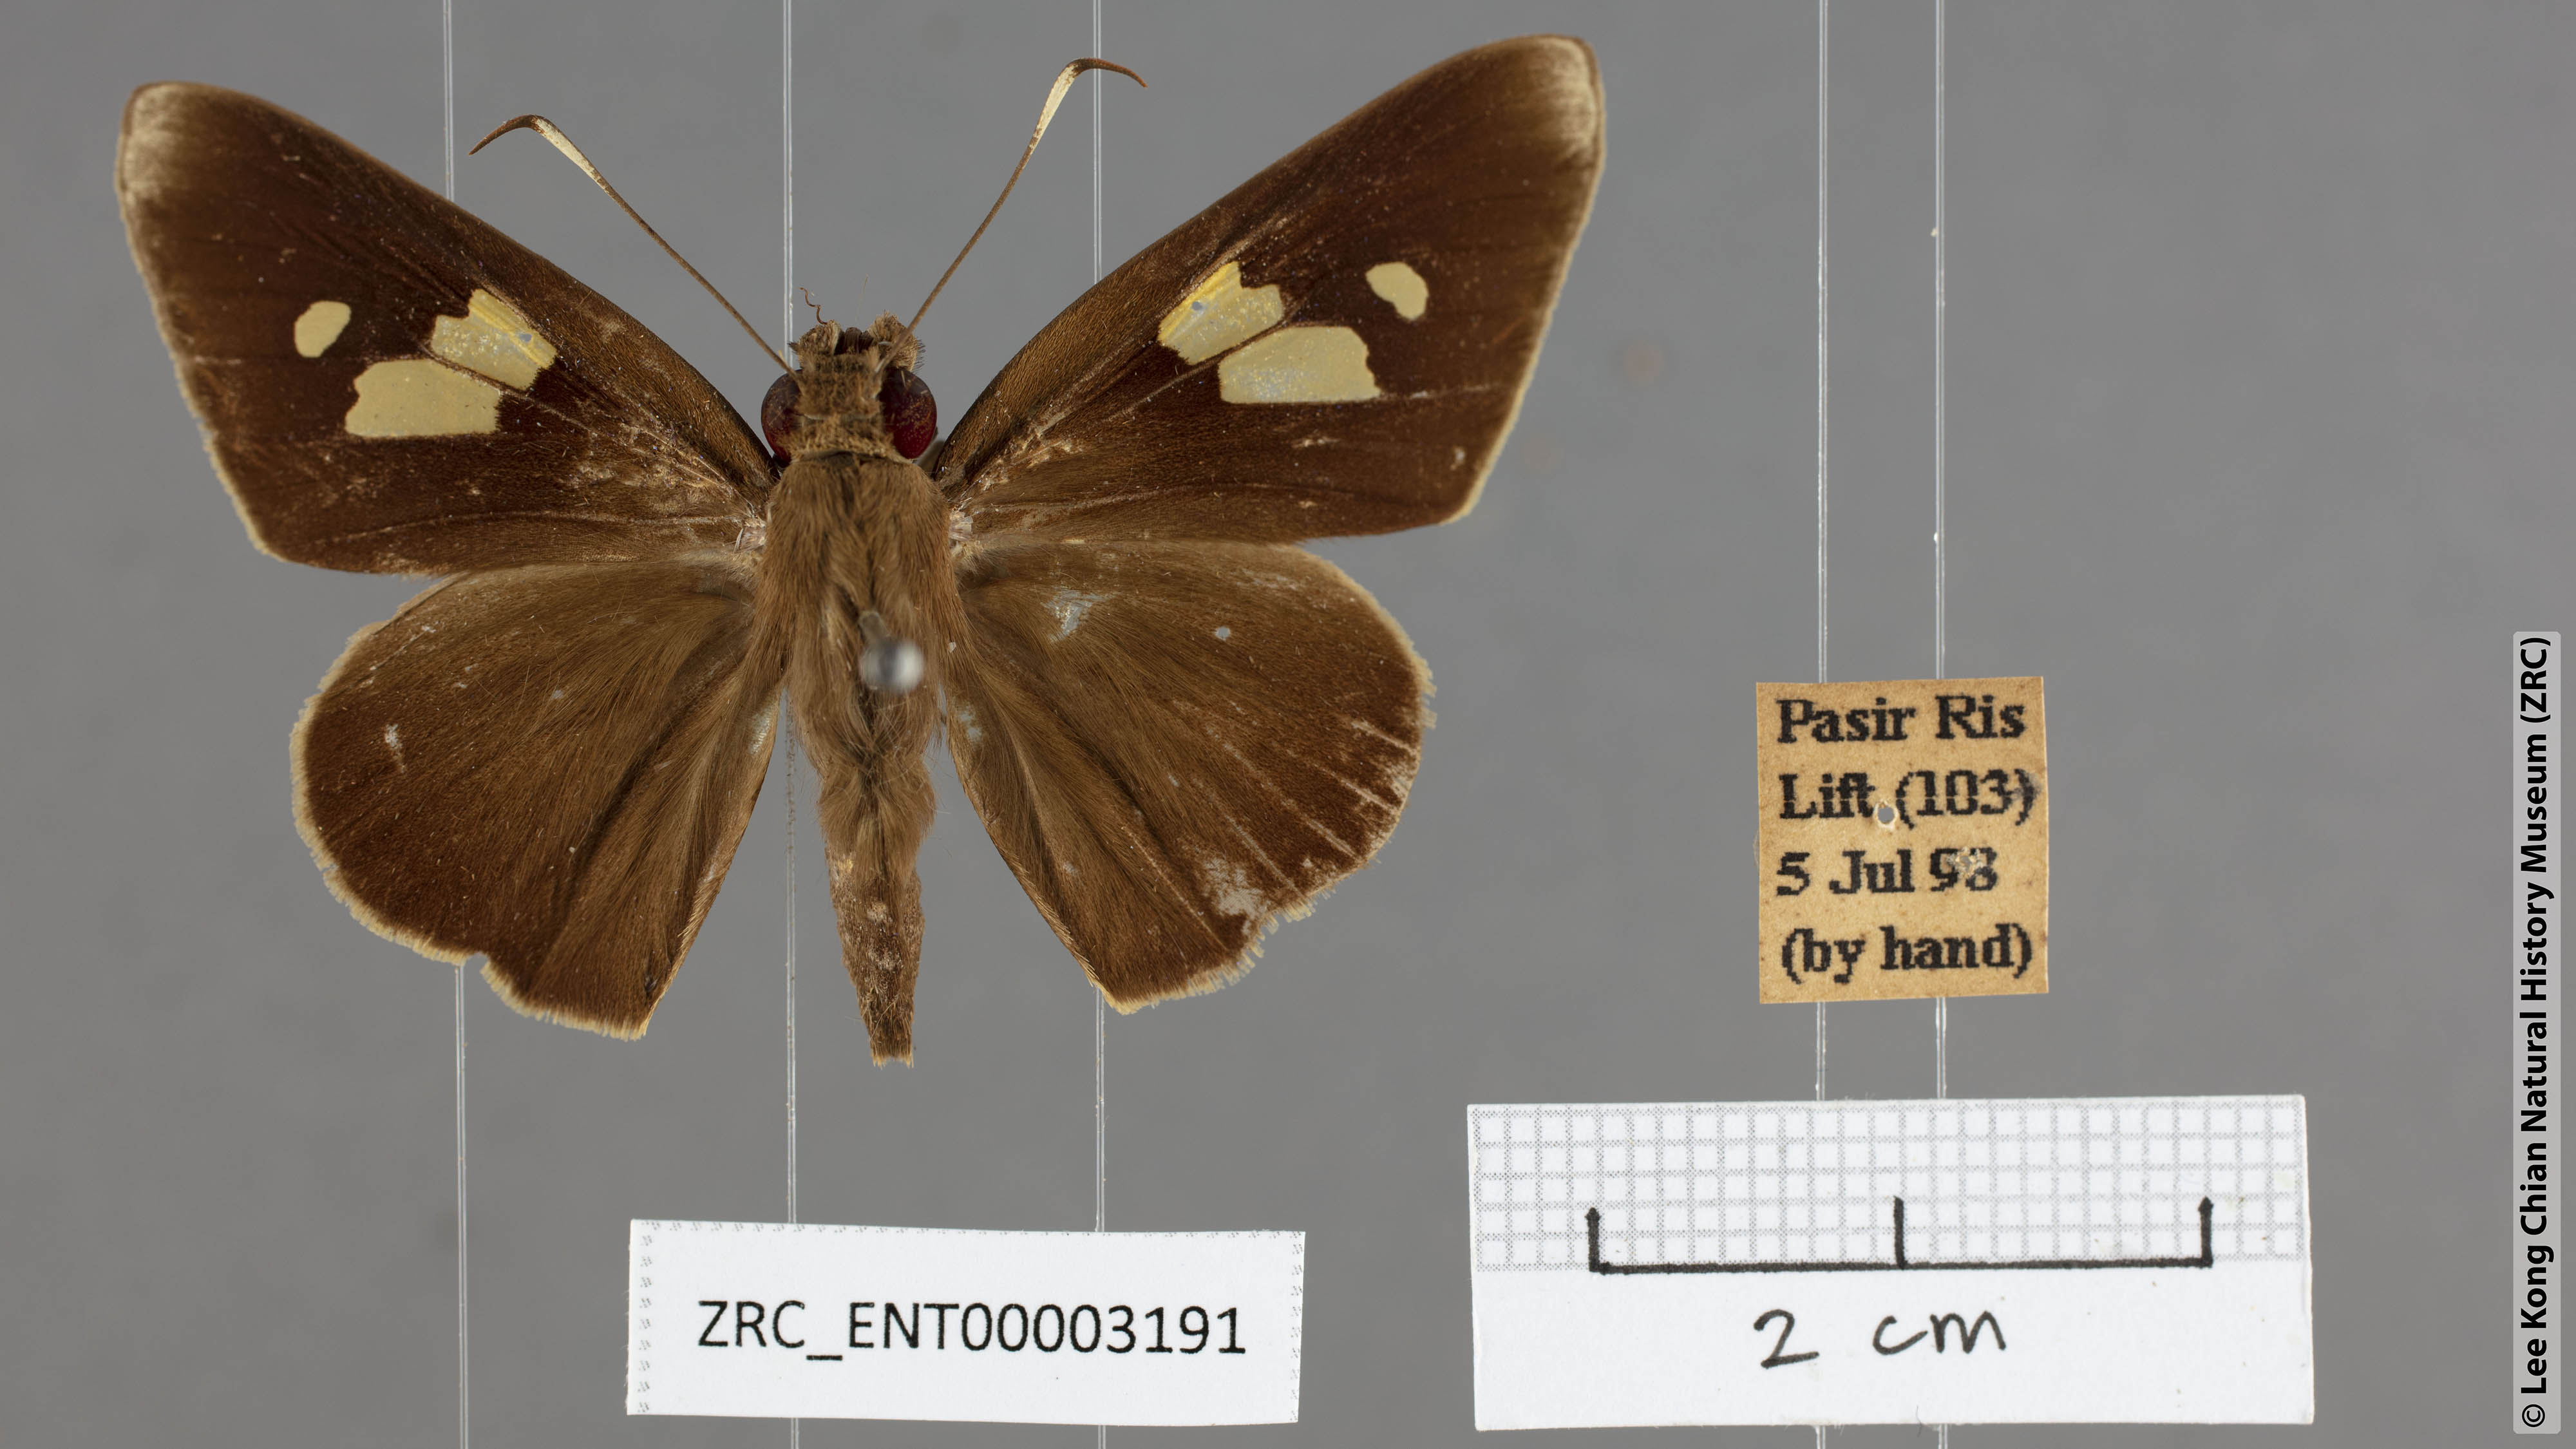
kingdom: Animalia
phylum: Arthropoda
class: Insecta
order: Lepidoptera
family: Hesperiidae
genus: Erionota
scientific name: Erionota
